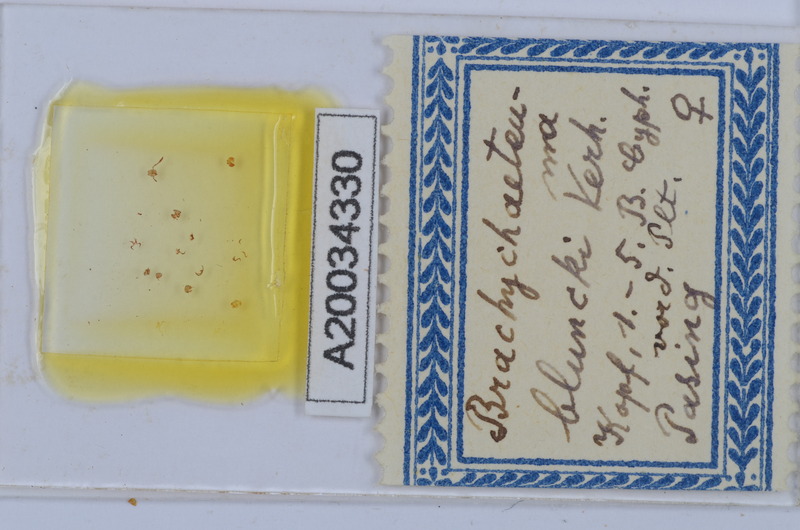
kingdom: Animalia
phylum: Arthropoda
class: Diplopoda
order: Chordeumatida
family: Brachychaeteumatidae
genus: Brachychaeteuma
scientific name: Brachychaeteuma bradeae
